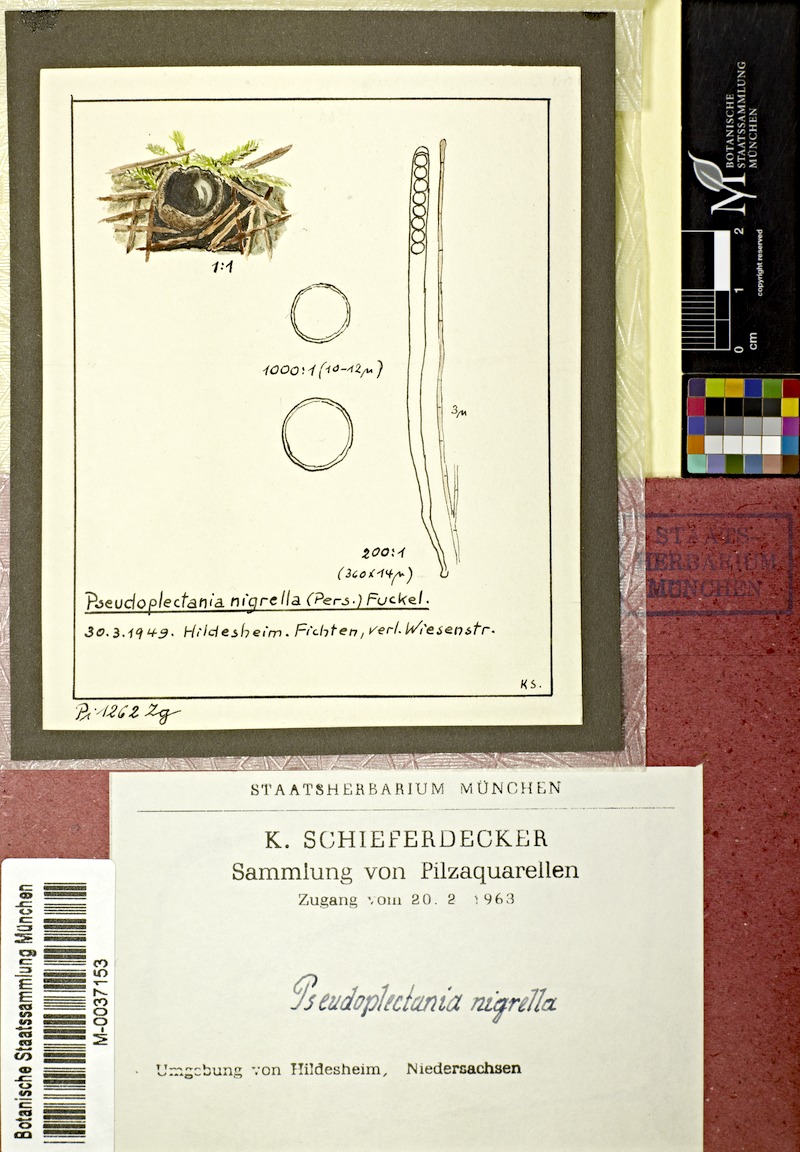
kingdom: Fungi
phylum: Ascomycota
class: Pezizomycetes
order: Pezizales
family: Sarcosomataceae
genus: Pseudoplectania
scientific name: Pseudoplectania nigrella
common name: Ebony cup
